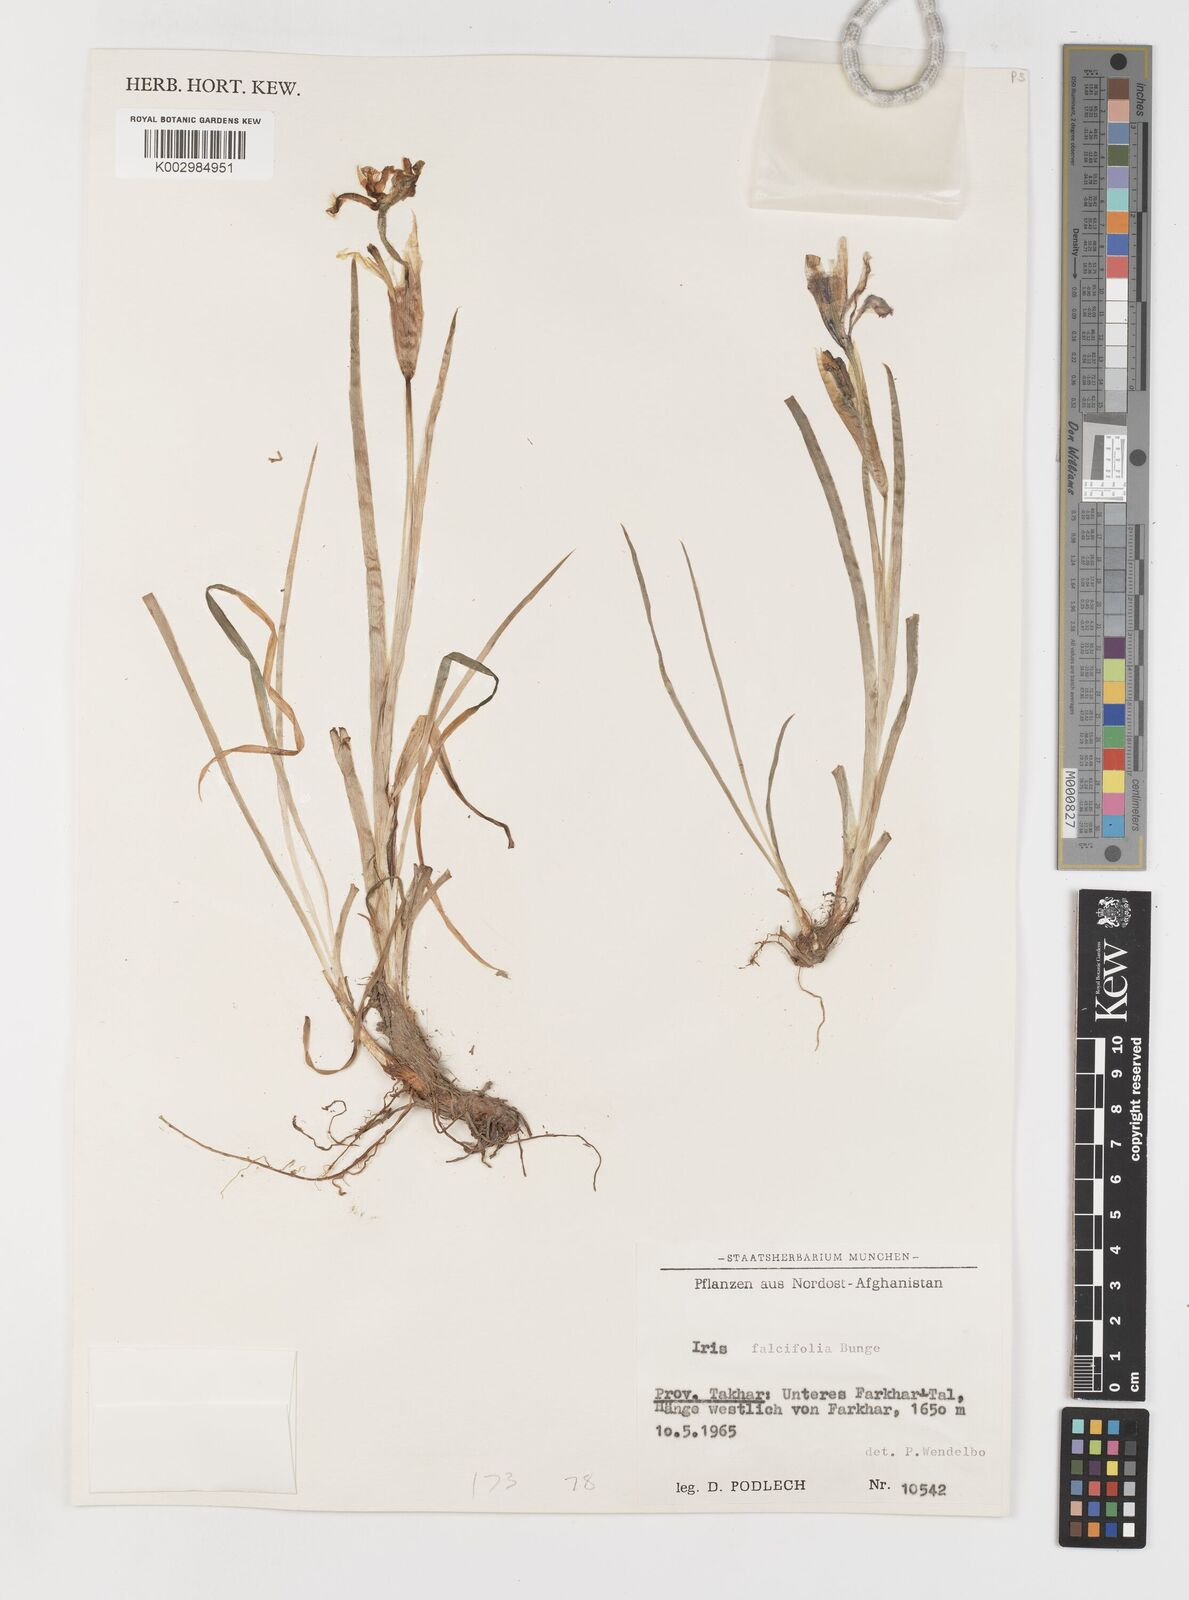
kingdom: Plantae
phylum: Tracheophyta
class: Liliopsida
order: Asparagales
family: Iridaceae
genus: Iris
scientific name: Iris longiscapa
